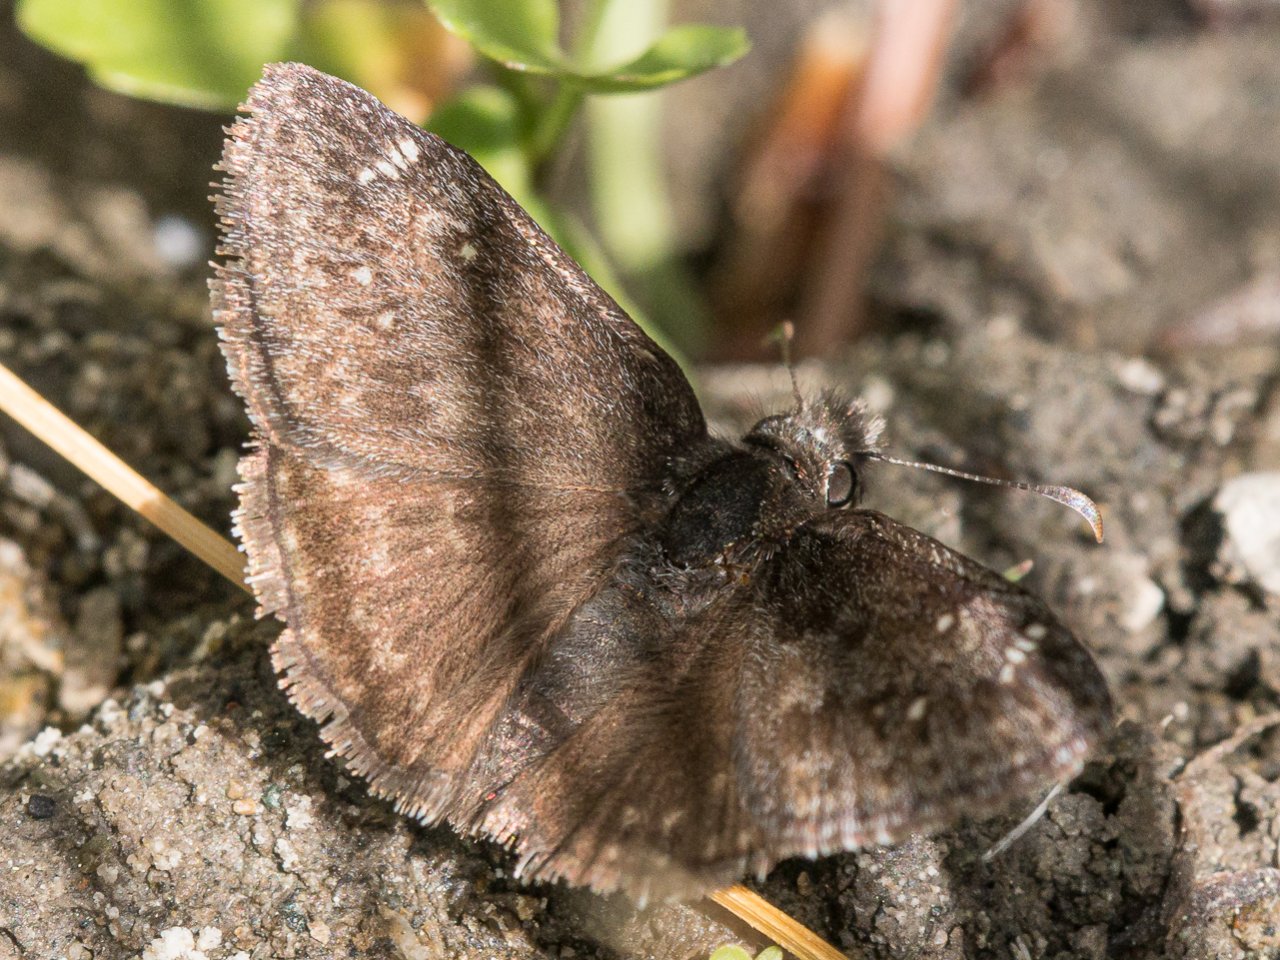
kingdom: Animalia
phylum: Arthropoda
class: Insecta
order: Lepidoptera
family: Hesperiidae
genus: Gesta
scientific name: Gesta
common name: Persius Duskywing
